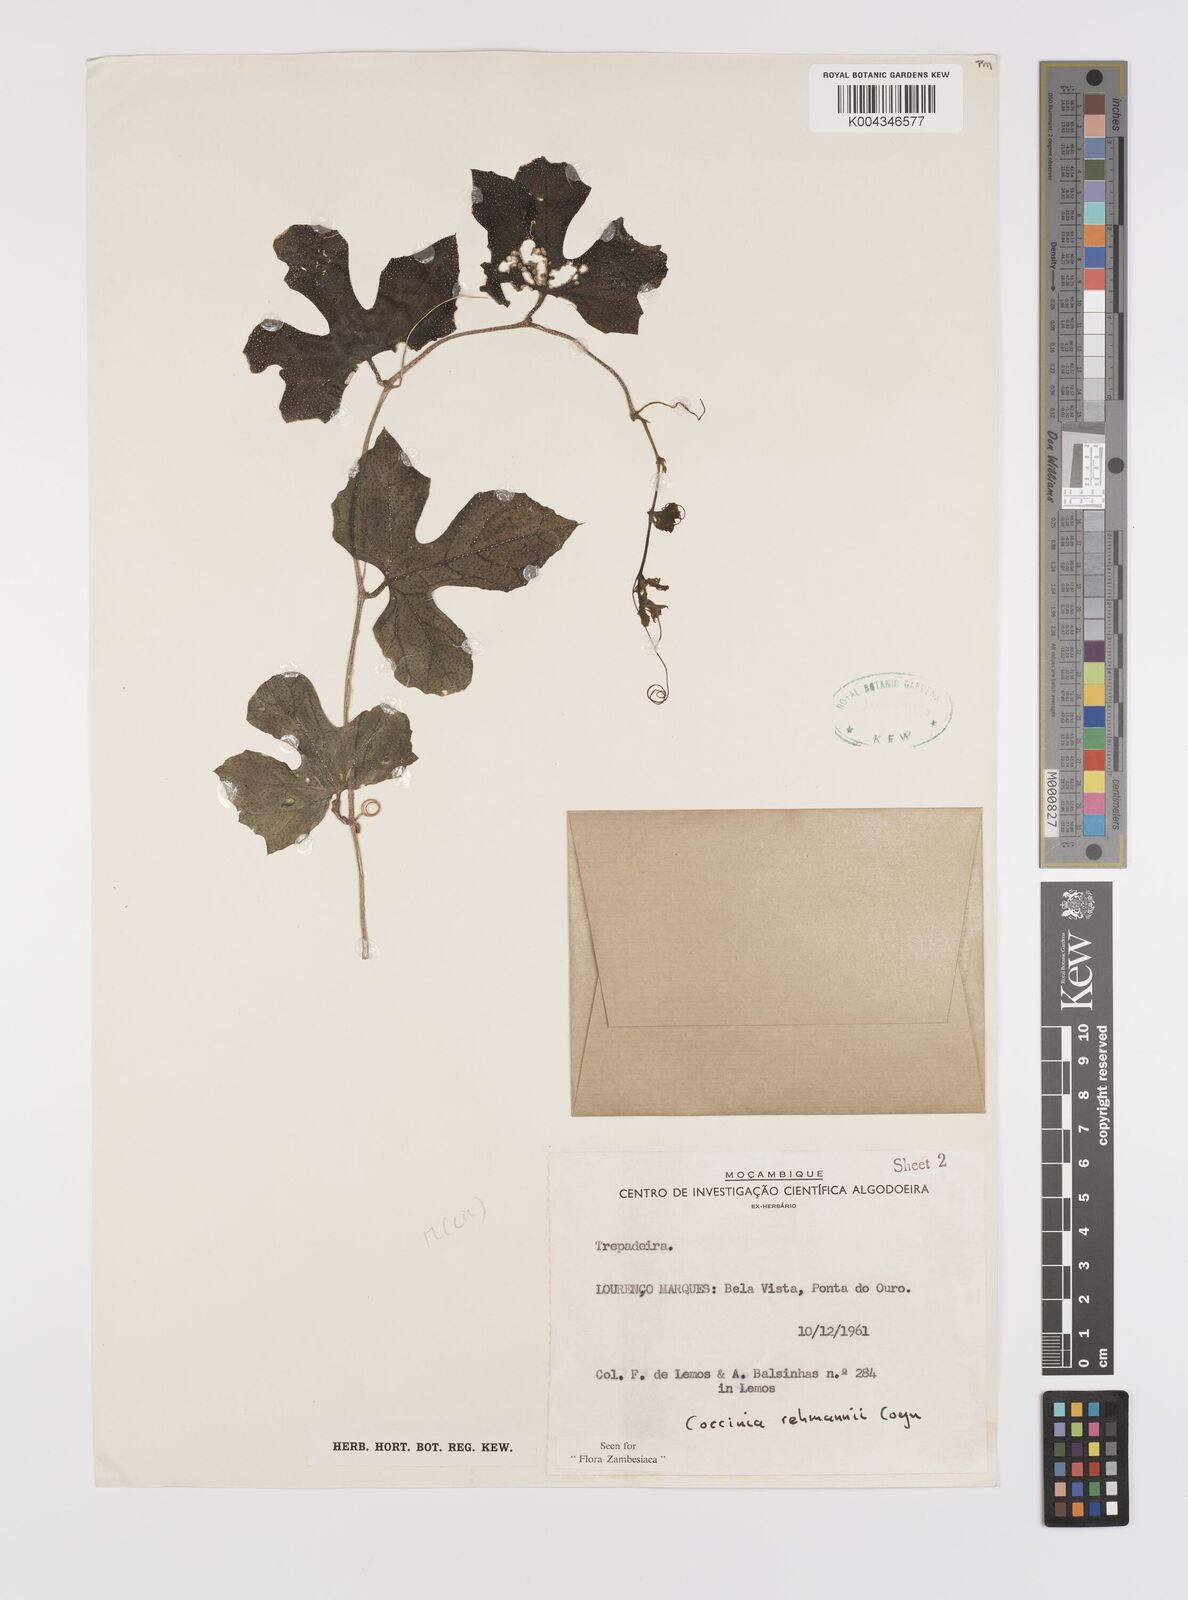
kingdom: Plantae
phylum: Tracheophyta
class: Magnoliopsida
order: Cucurbitales
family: Cucurbitaceae
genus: Coccinia
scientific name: Coccinia rehmannii
